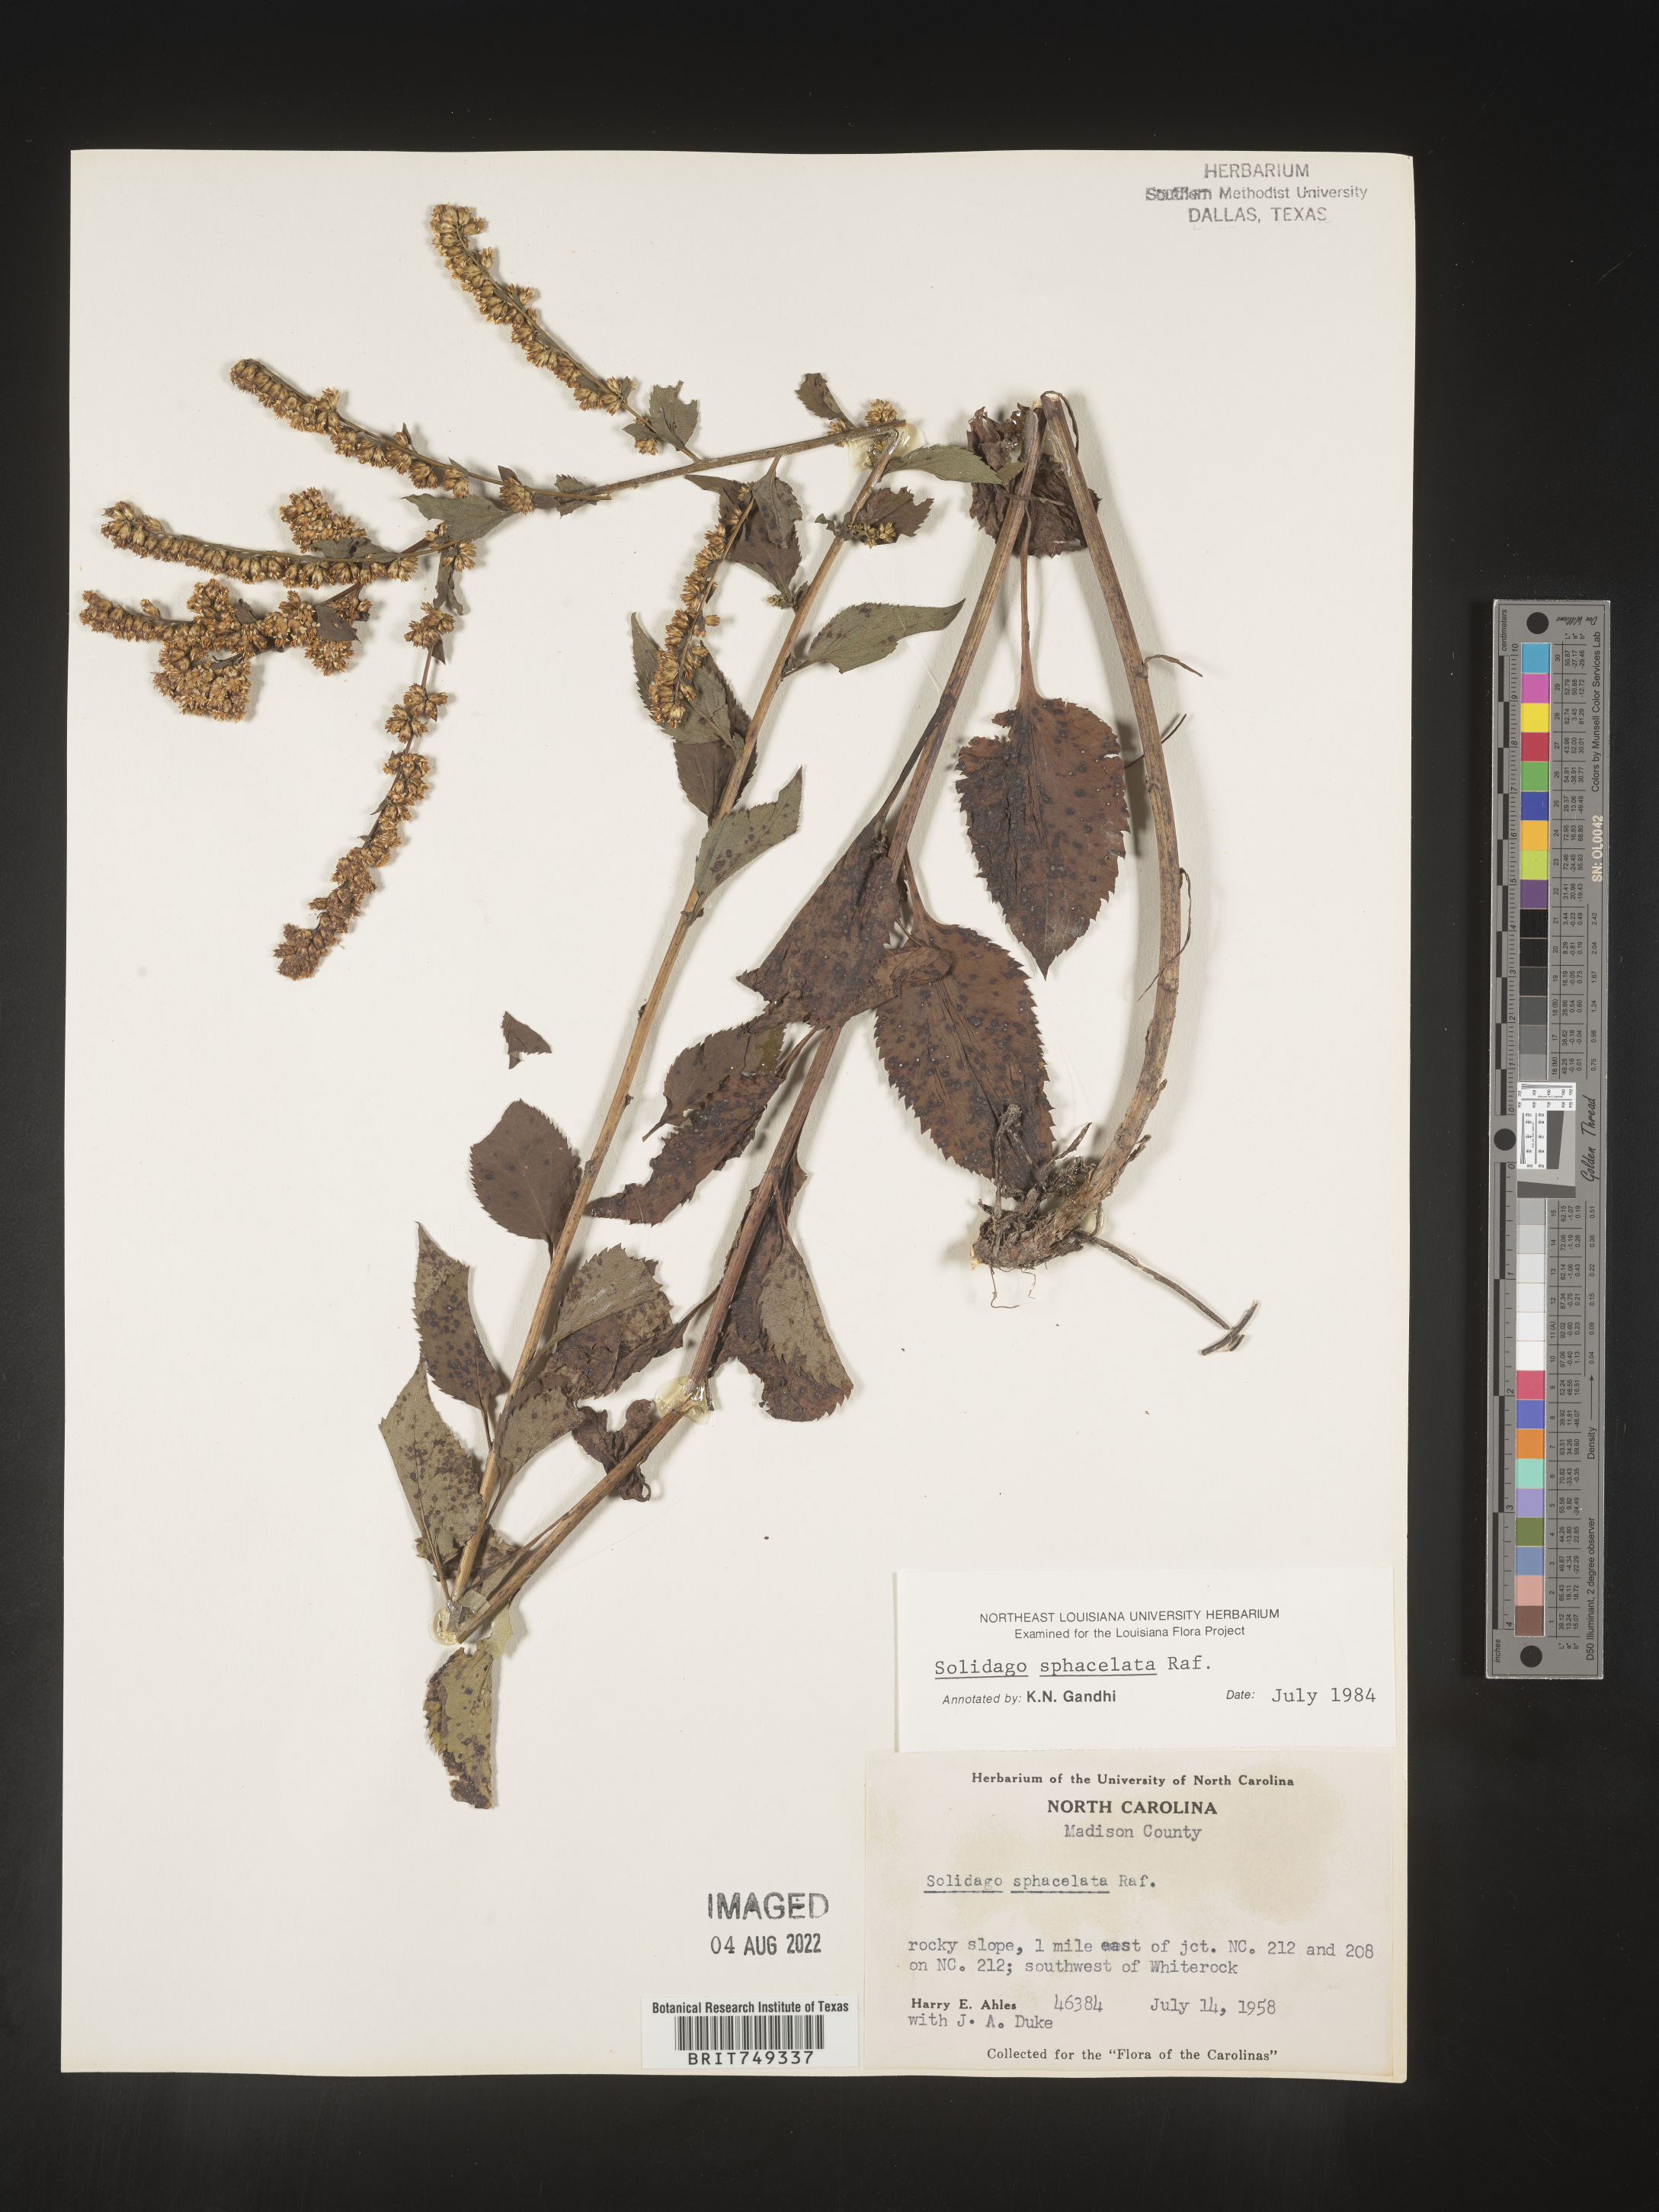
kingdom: Plantae
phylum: Tracheophyta
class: Magnoliopsida
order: Asterales
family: Asteraceae
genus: Solidago
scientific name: Solidago sphacelata
